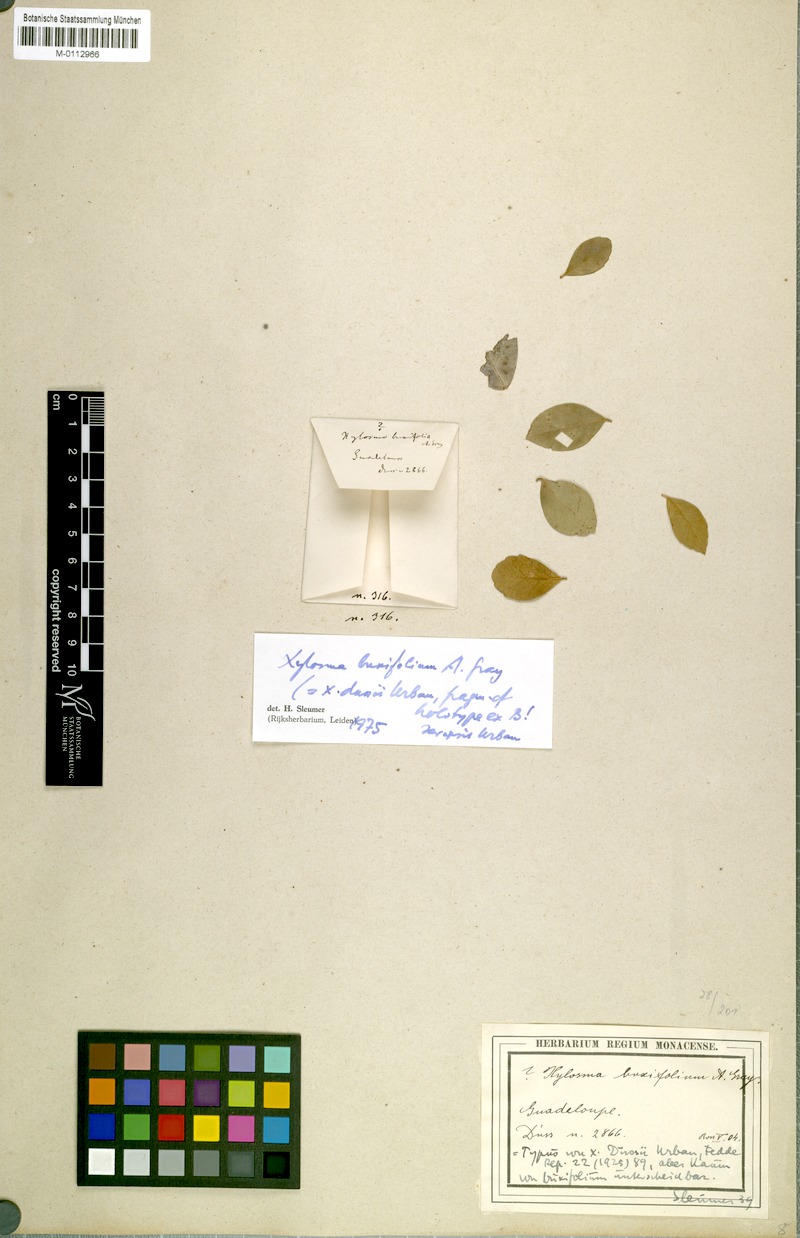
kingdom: Plantae
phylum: Tracheophyta
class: Magnoliopsida
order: Malpighiales
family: Salicaceae
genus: Xylosma
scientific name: Xylosma buxifolia
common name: Cockspur
